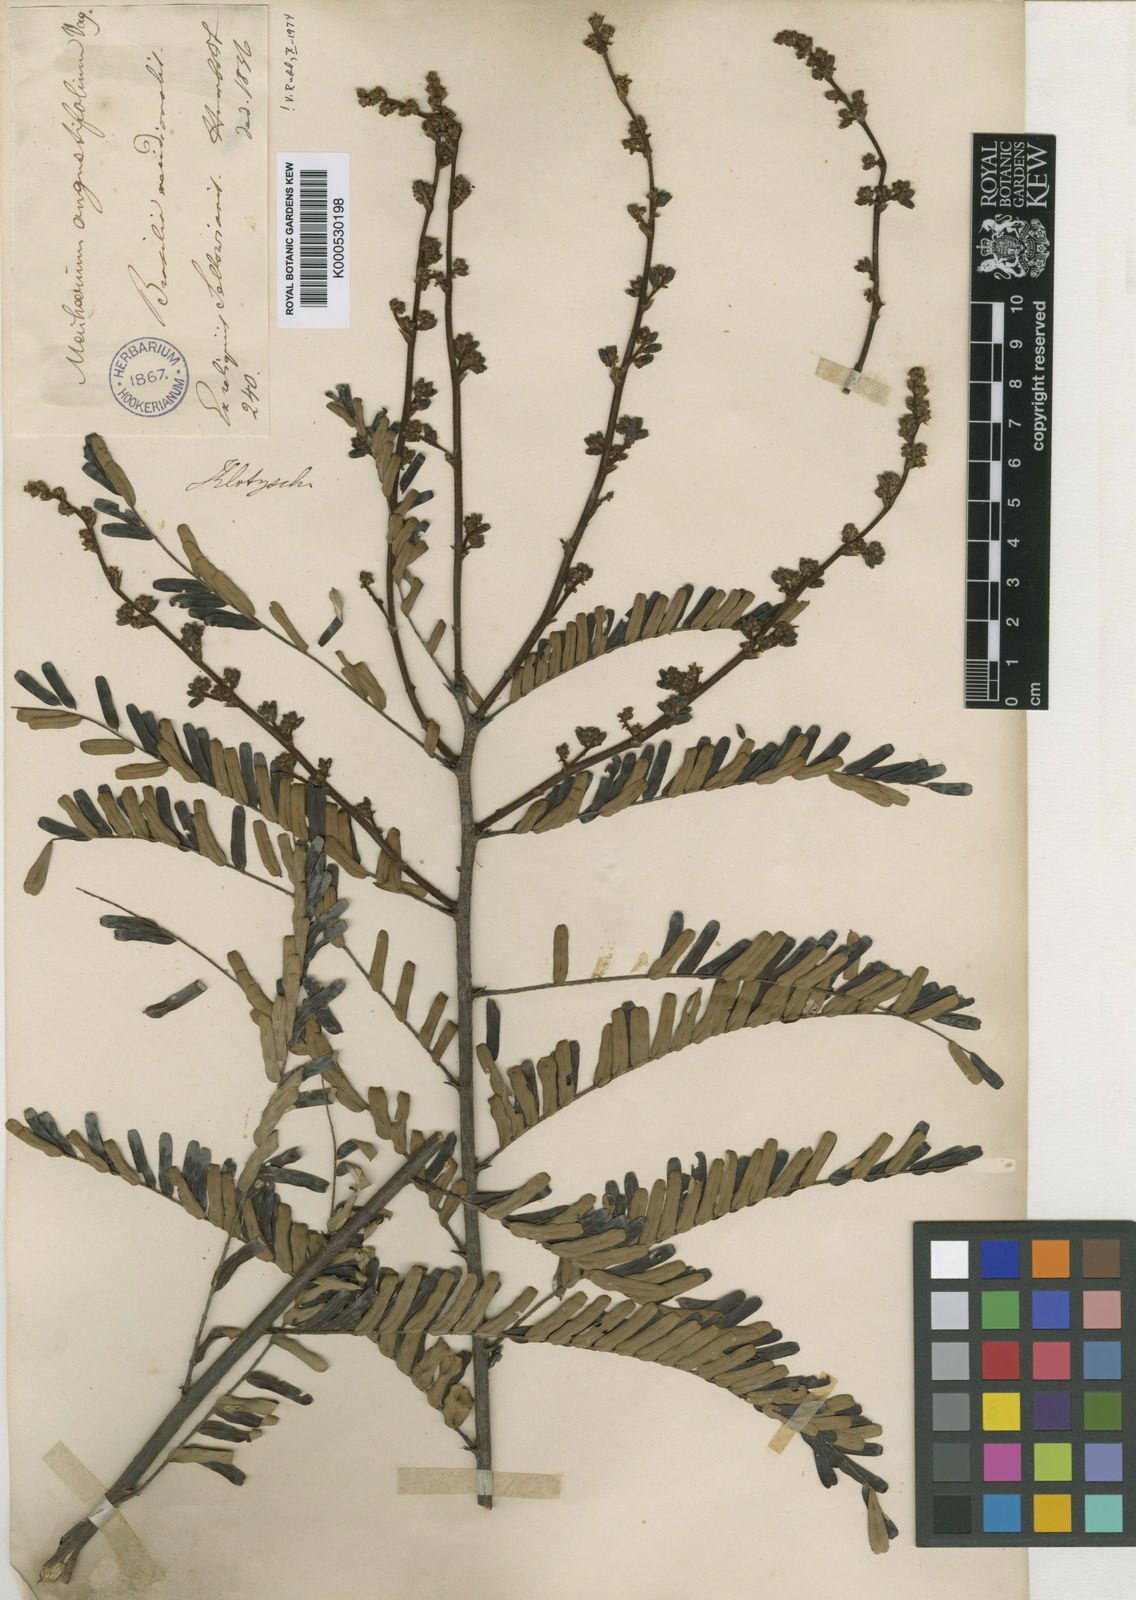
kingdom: Plantae
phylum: Tracheophyta
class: Magnoliopsida
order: Fabales
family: Fabaceae
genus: Machaerium
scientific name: Machaerium aculeatum
